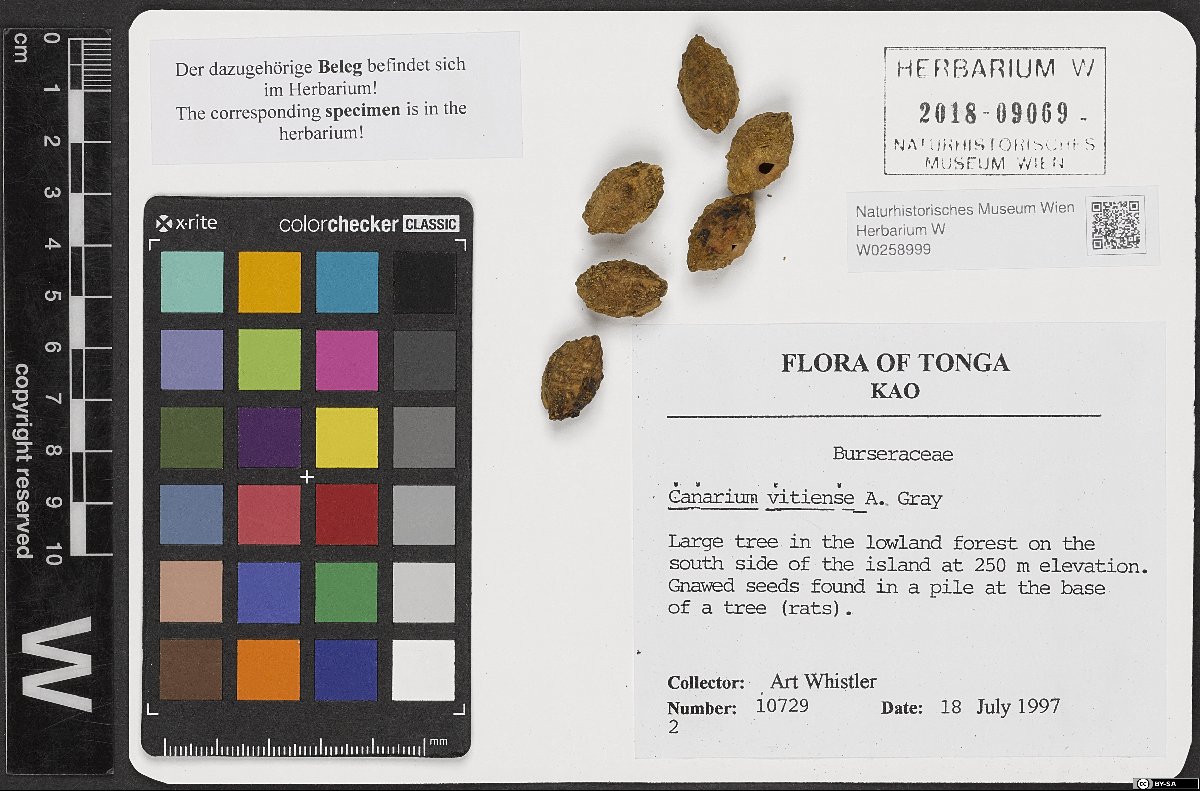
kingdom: Plantae
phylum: Tracheophyta
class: Magnoliopsida
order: Sapindales
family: Burseraceae
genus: Canarium
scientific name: Canarium vitiense
